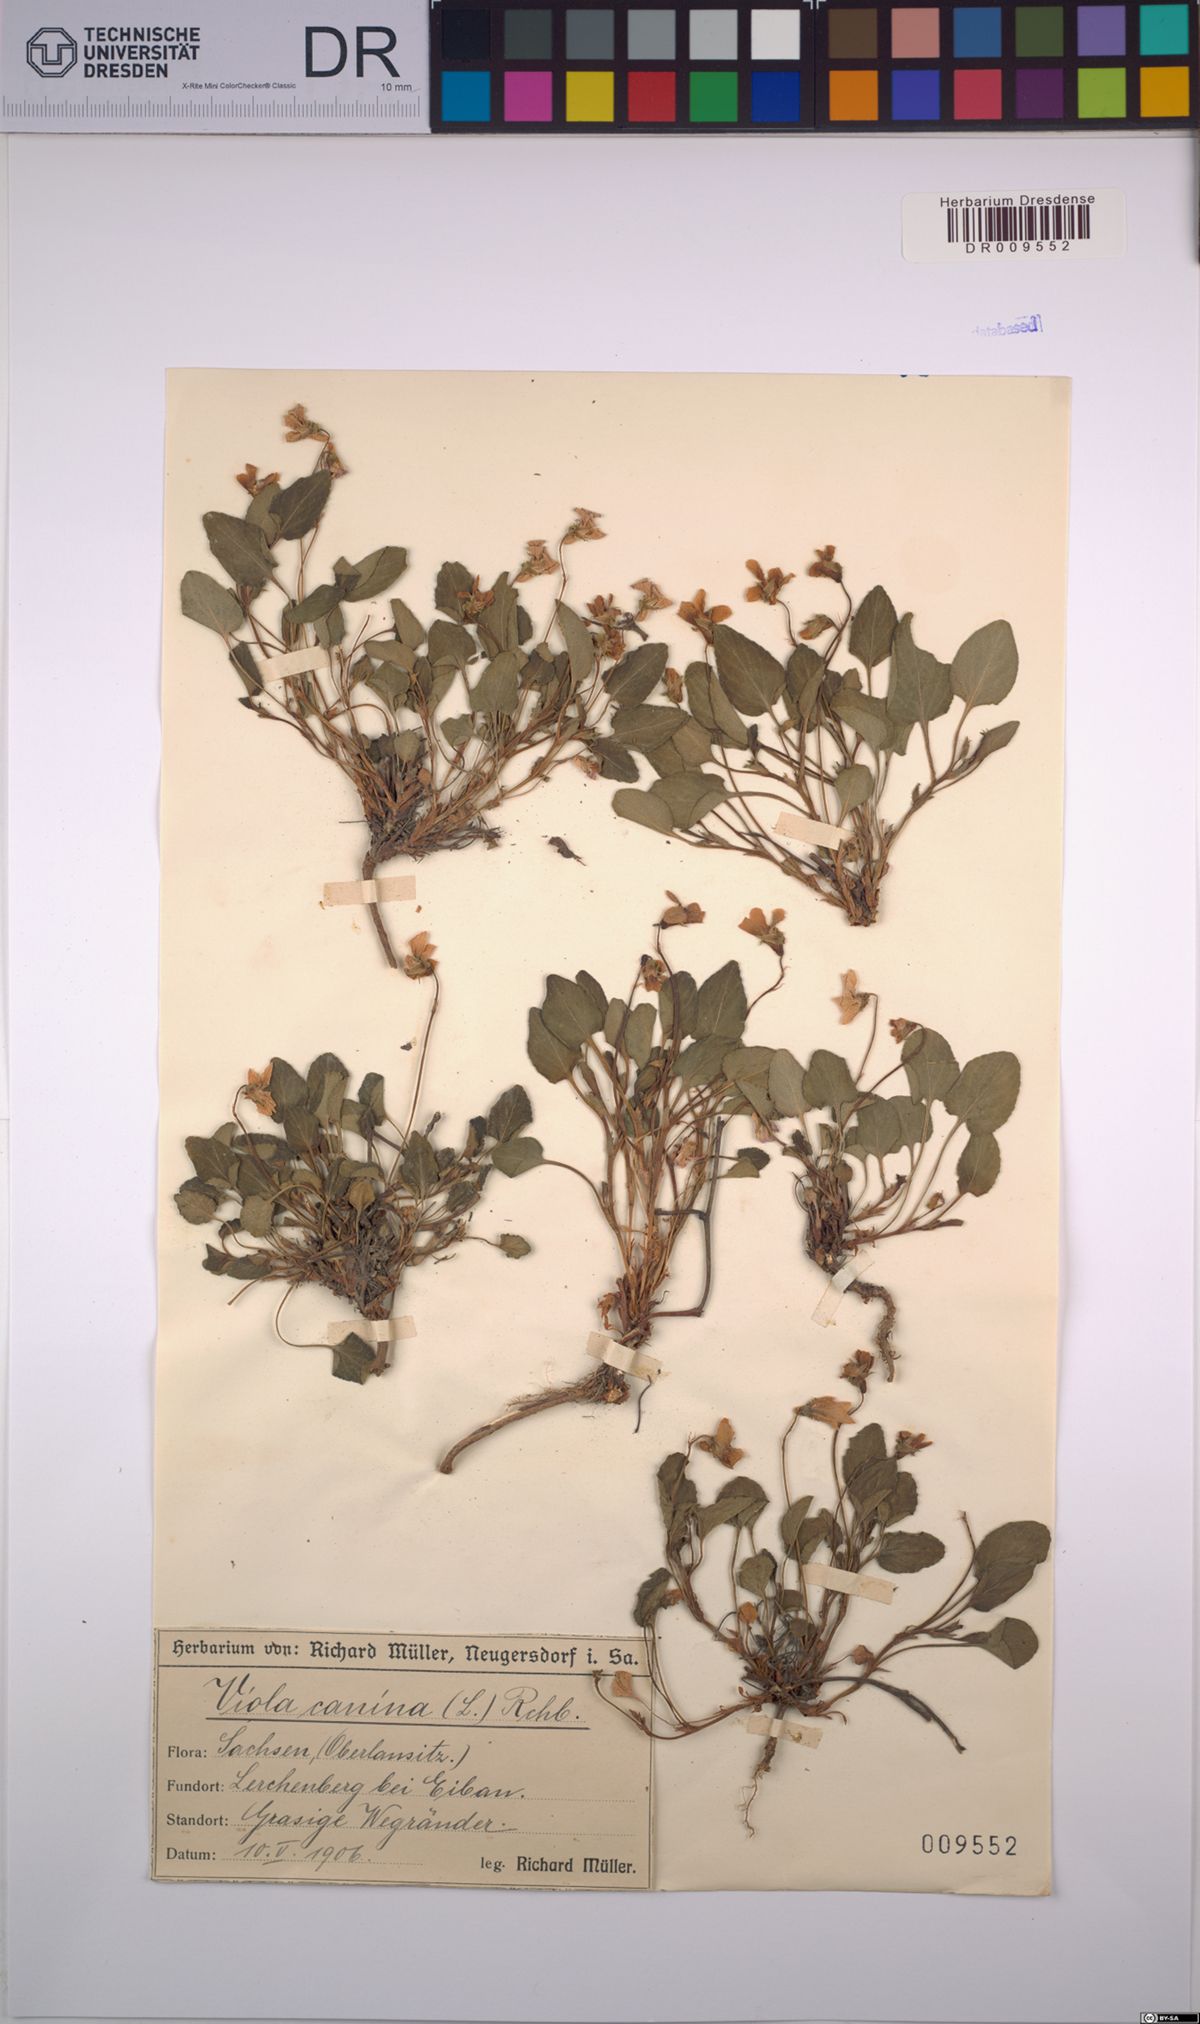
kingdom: Plantae
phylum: Tracheophyta
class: Magnoliopsida
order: Malpighiales
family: Violaceae
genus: Viola
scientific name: Viola canina
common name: Heath dog-violet
